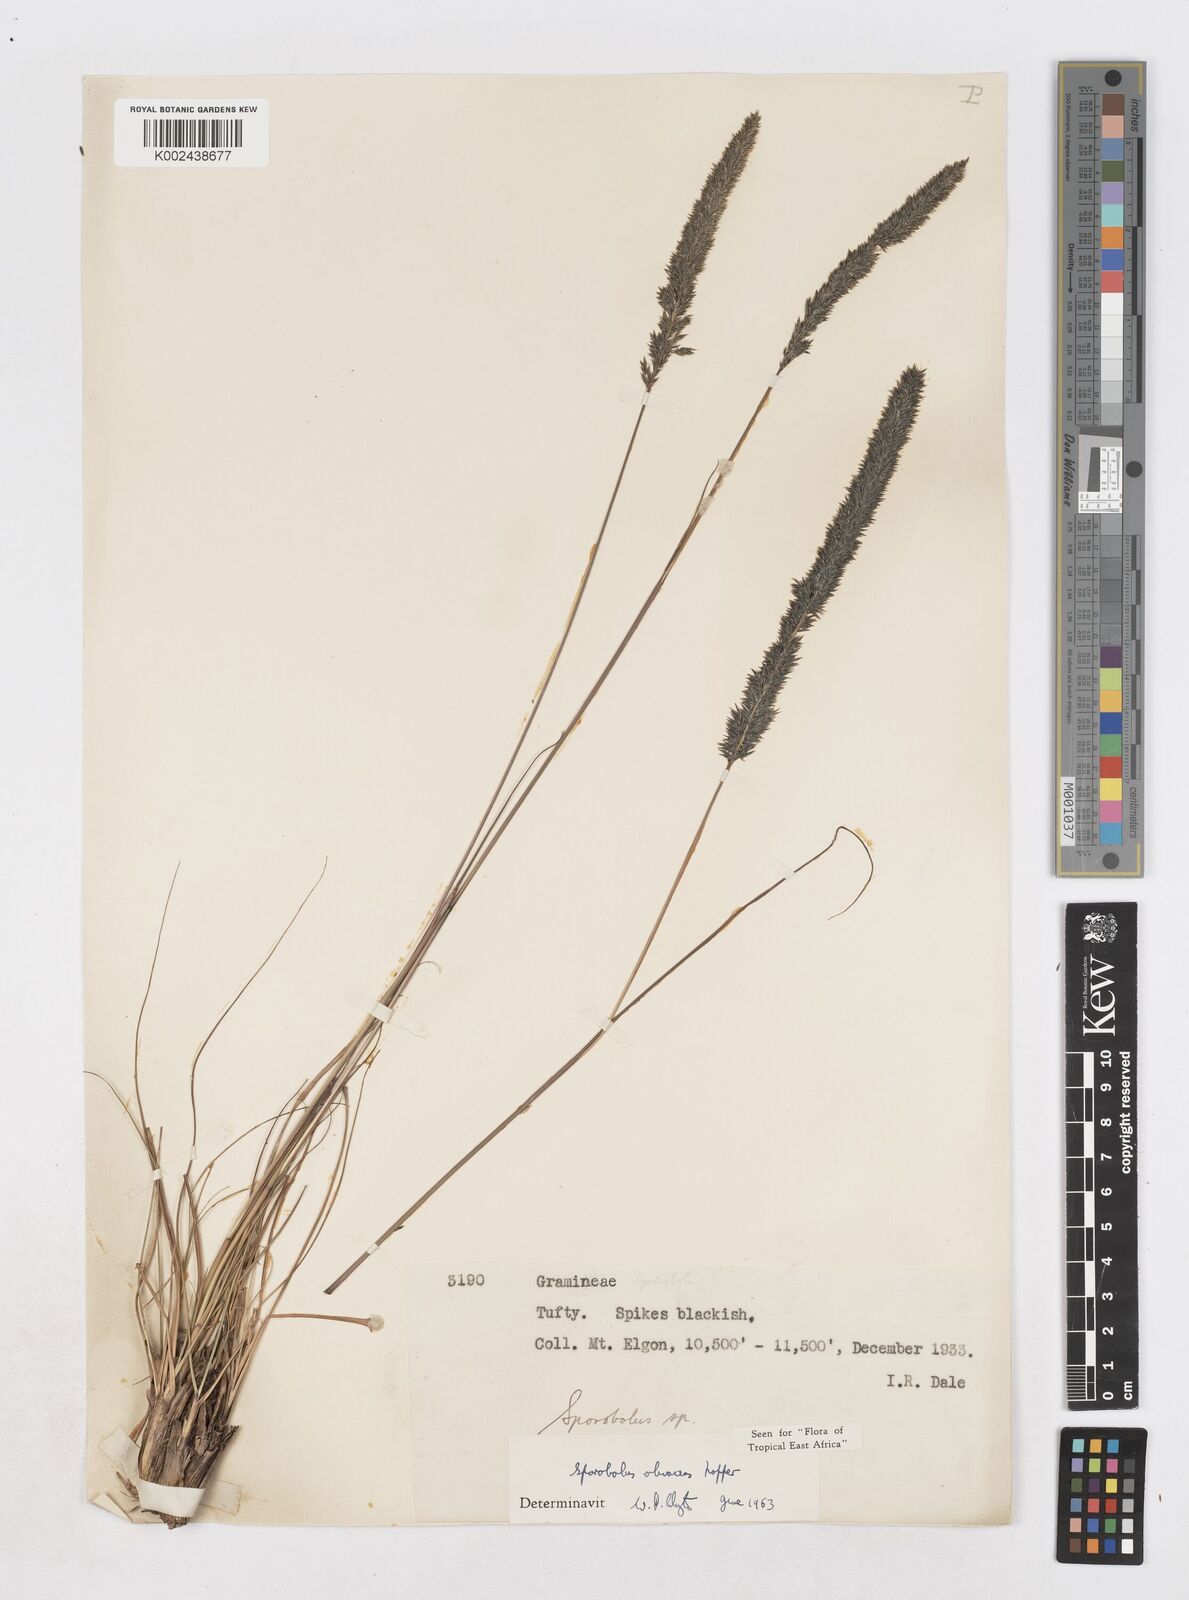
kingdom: Plantae
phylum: Tracheophyta
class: Liliopsida
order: Poales
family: Poaceae
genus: Sporobolus
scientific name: Sporobolus olivaceus
